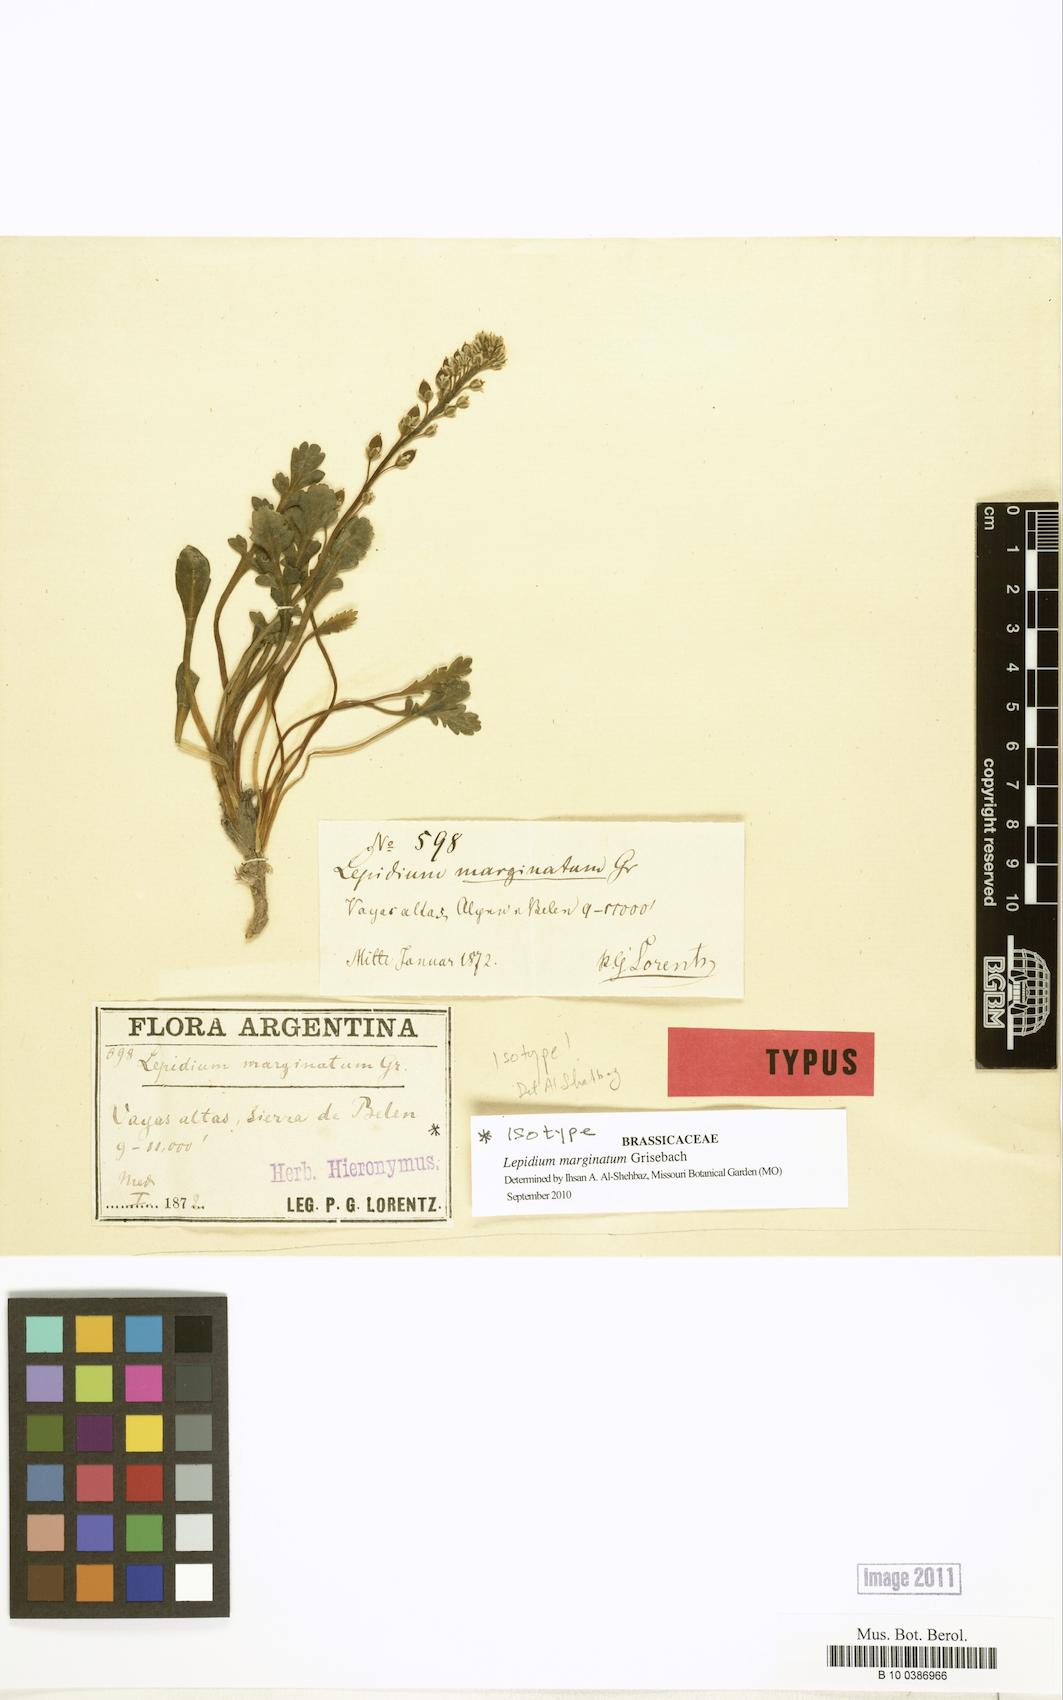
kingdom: Plantae
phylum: Tracheophyta
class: Magnoliopsida
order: Brassicales
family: Brassicaceae
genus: Lepidium
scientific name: Lepidium marginatum
